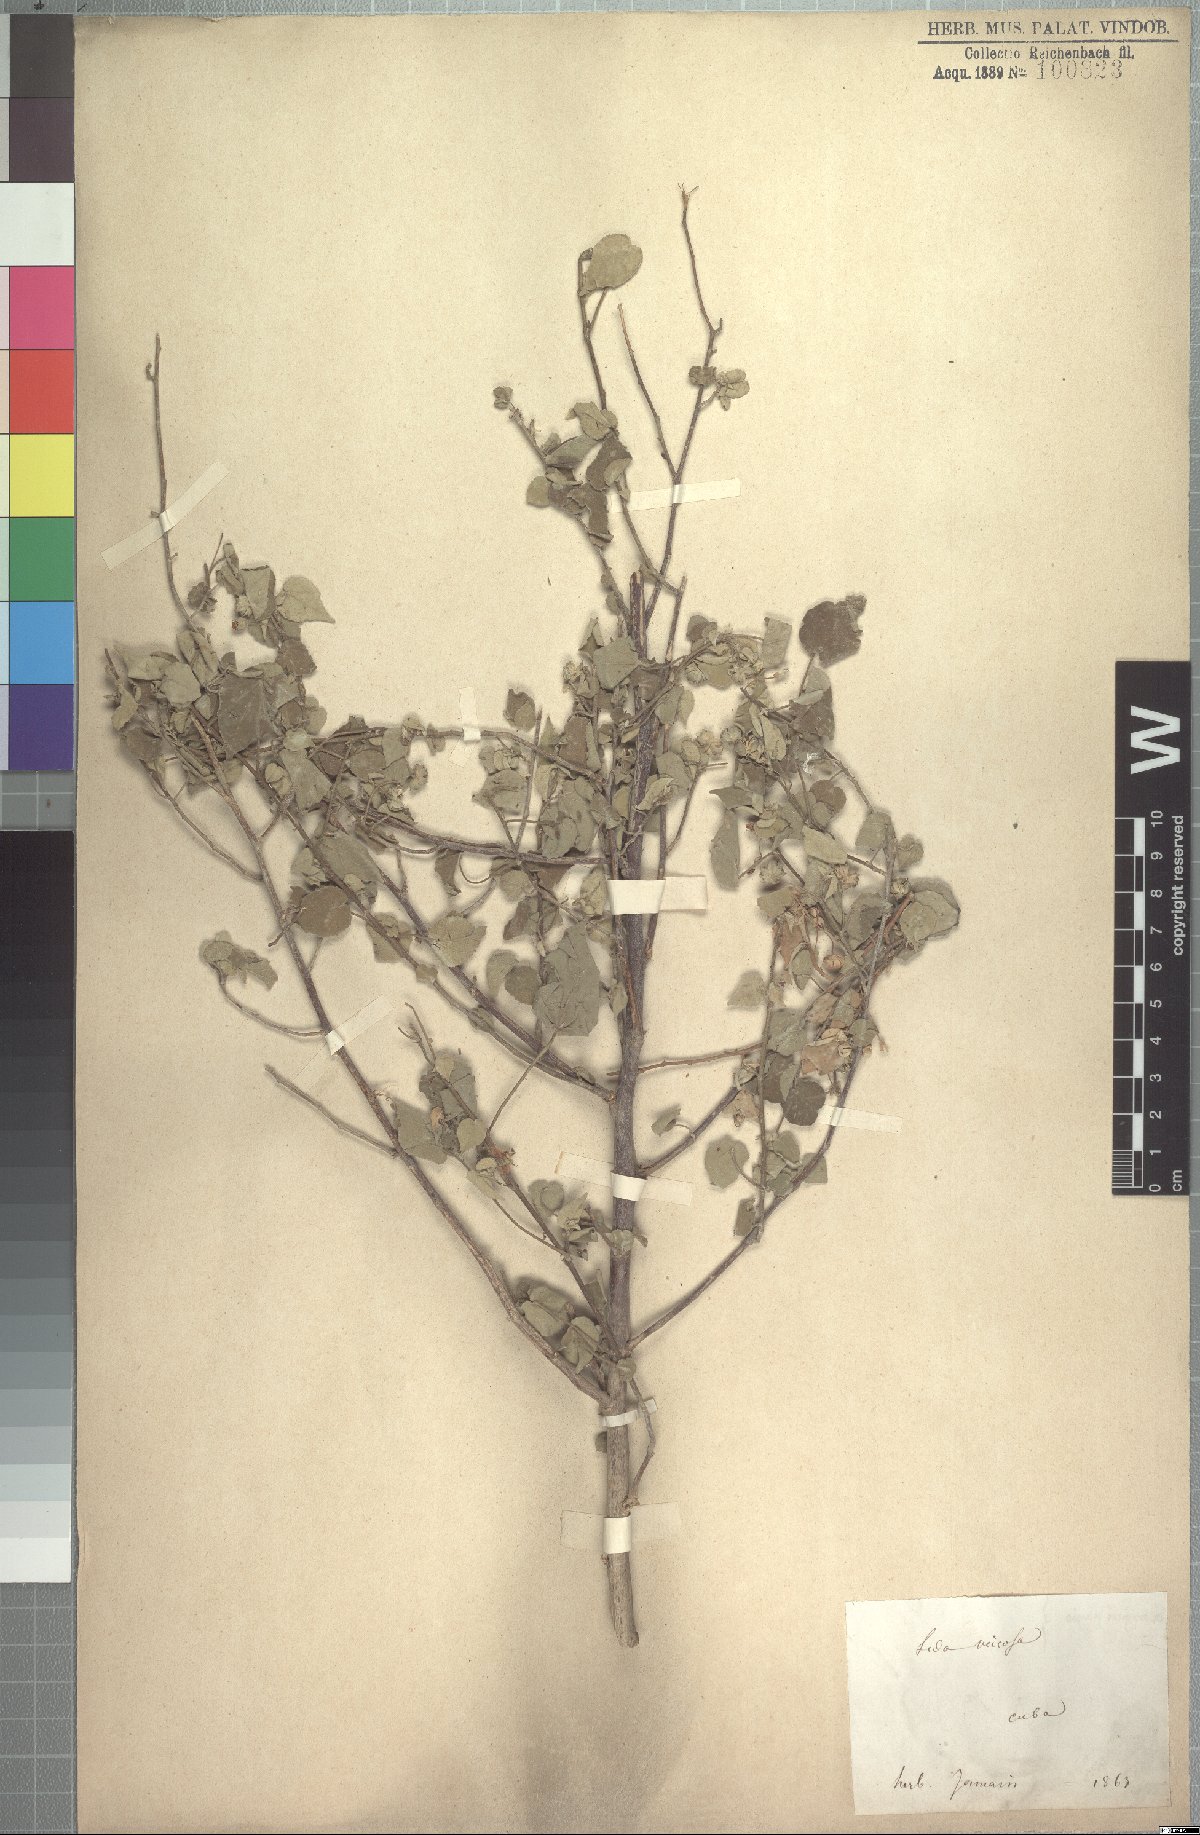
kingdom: Plantae
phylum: Tracheophyta
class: Magnoliopsida
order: Malvales
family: Malvaceae
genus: Abutilon
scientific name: Abutilon viscosum
